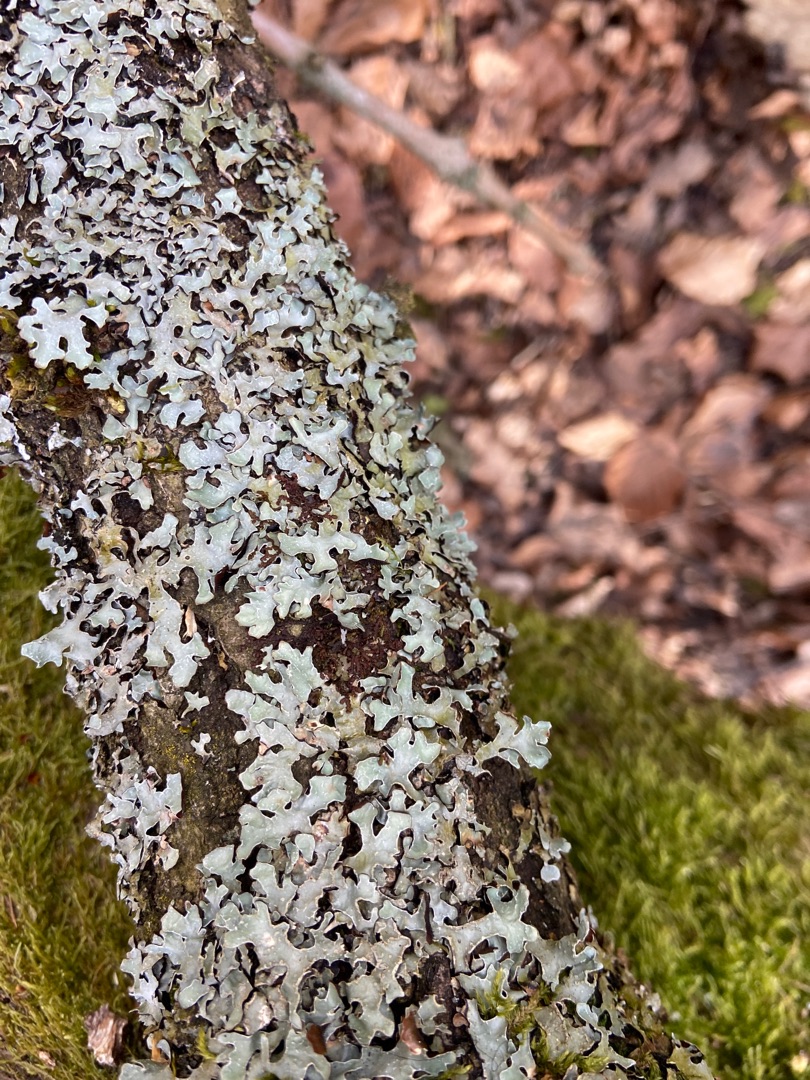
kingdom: Fungi
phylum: Ascomycota
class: Lecanoromycetes
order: Lecanorales
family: Parmeliaceae
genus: Parmelia
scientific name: Parmelia sulcata
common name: Rynket skållav
